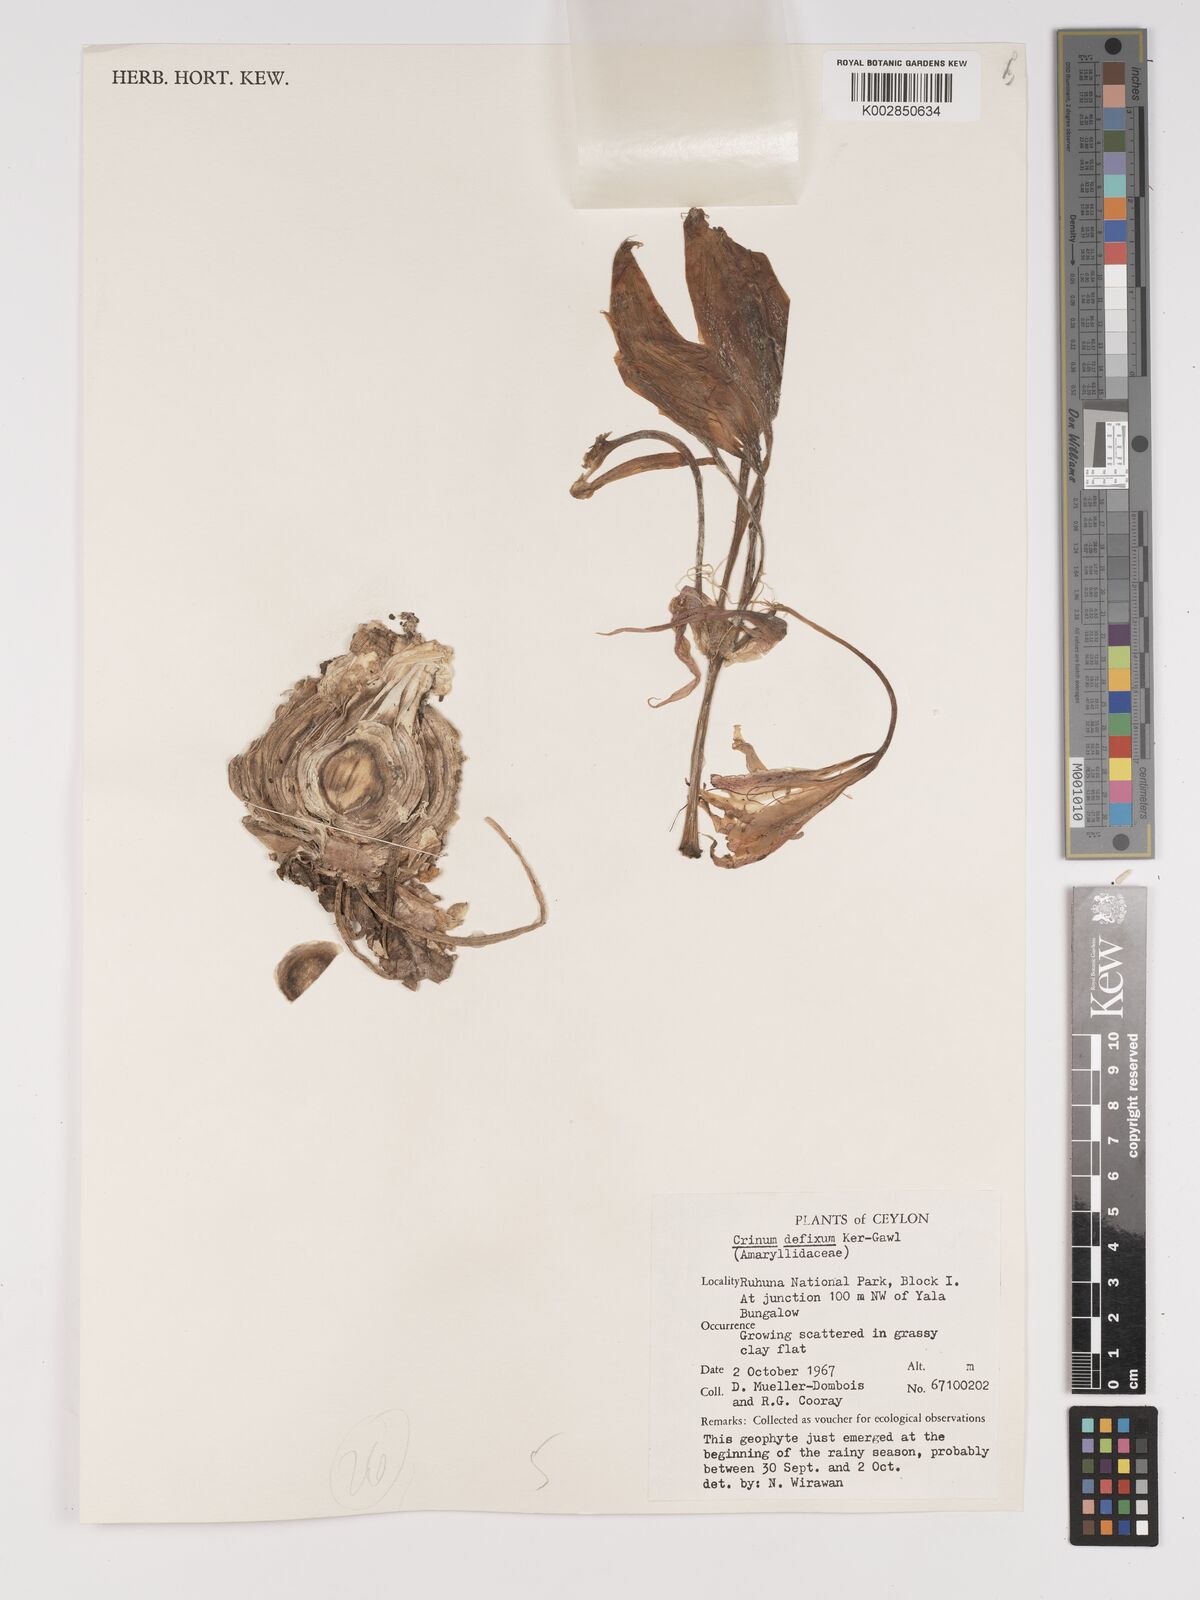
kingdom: Plantae
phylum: Tracheophyta
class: Liliopsida
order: Asparagales
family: Amaryllidaceae
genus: Crinum
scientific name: Crinum defixum
